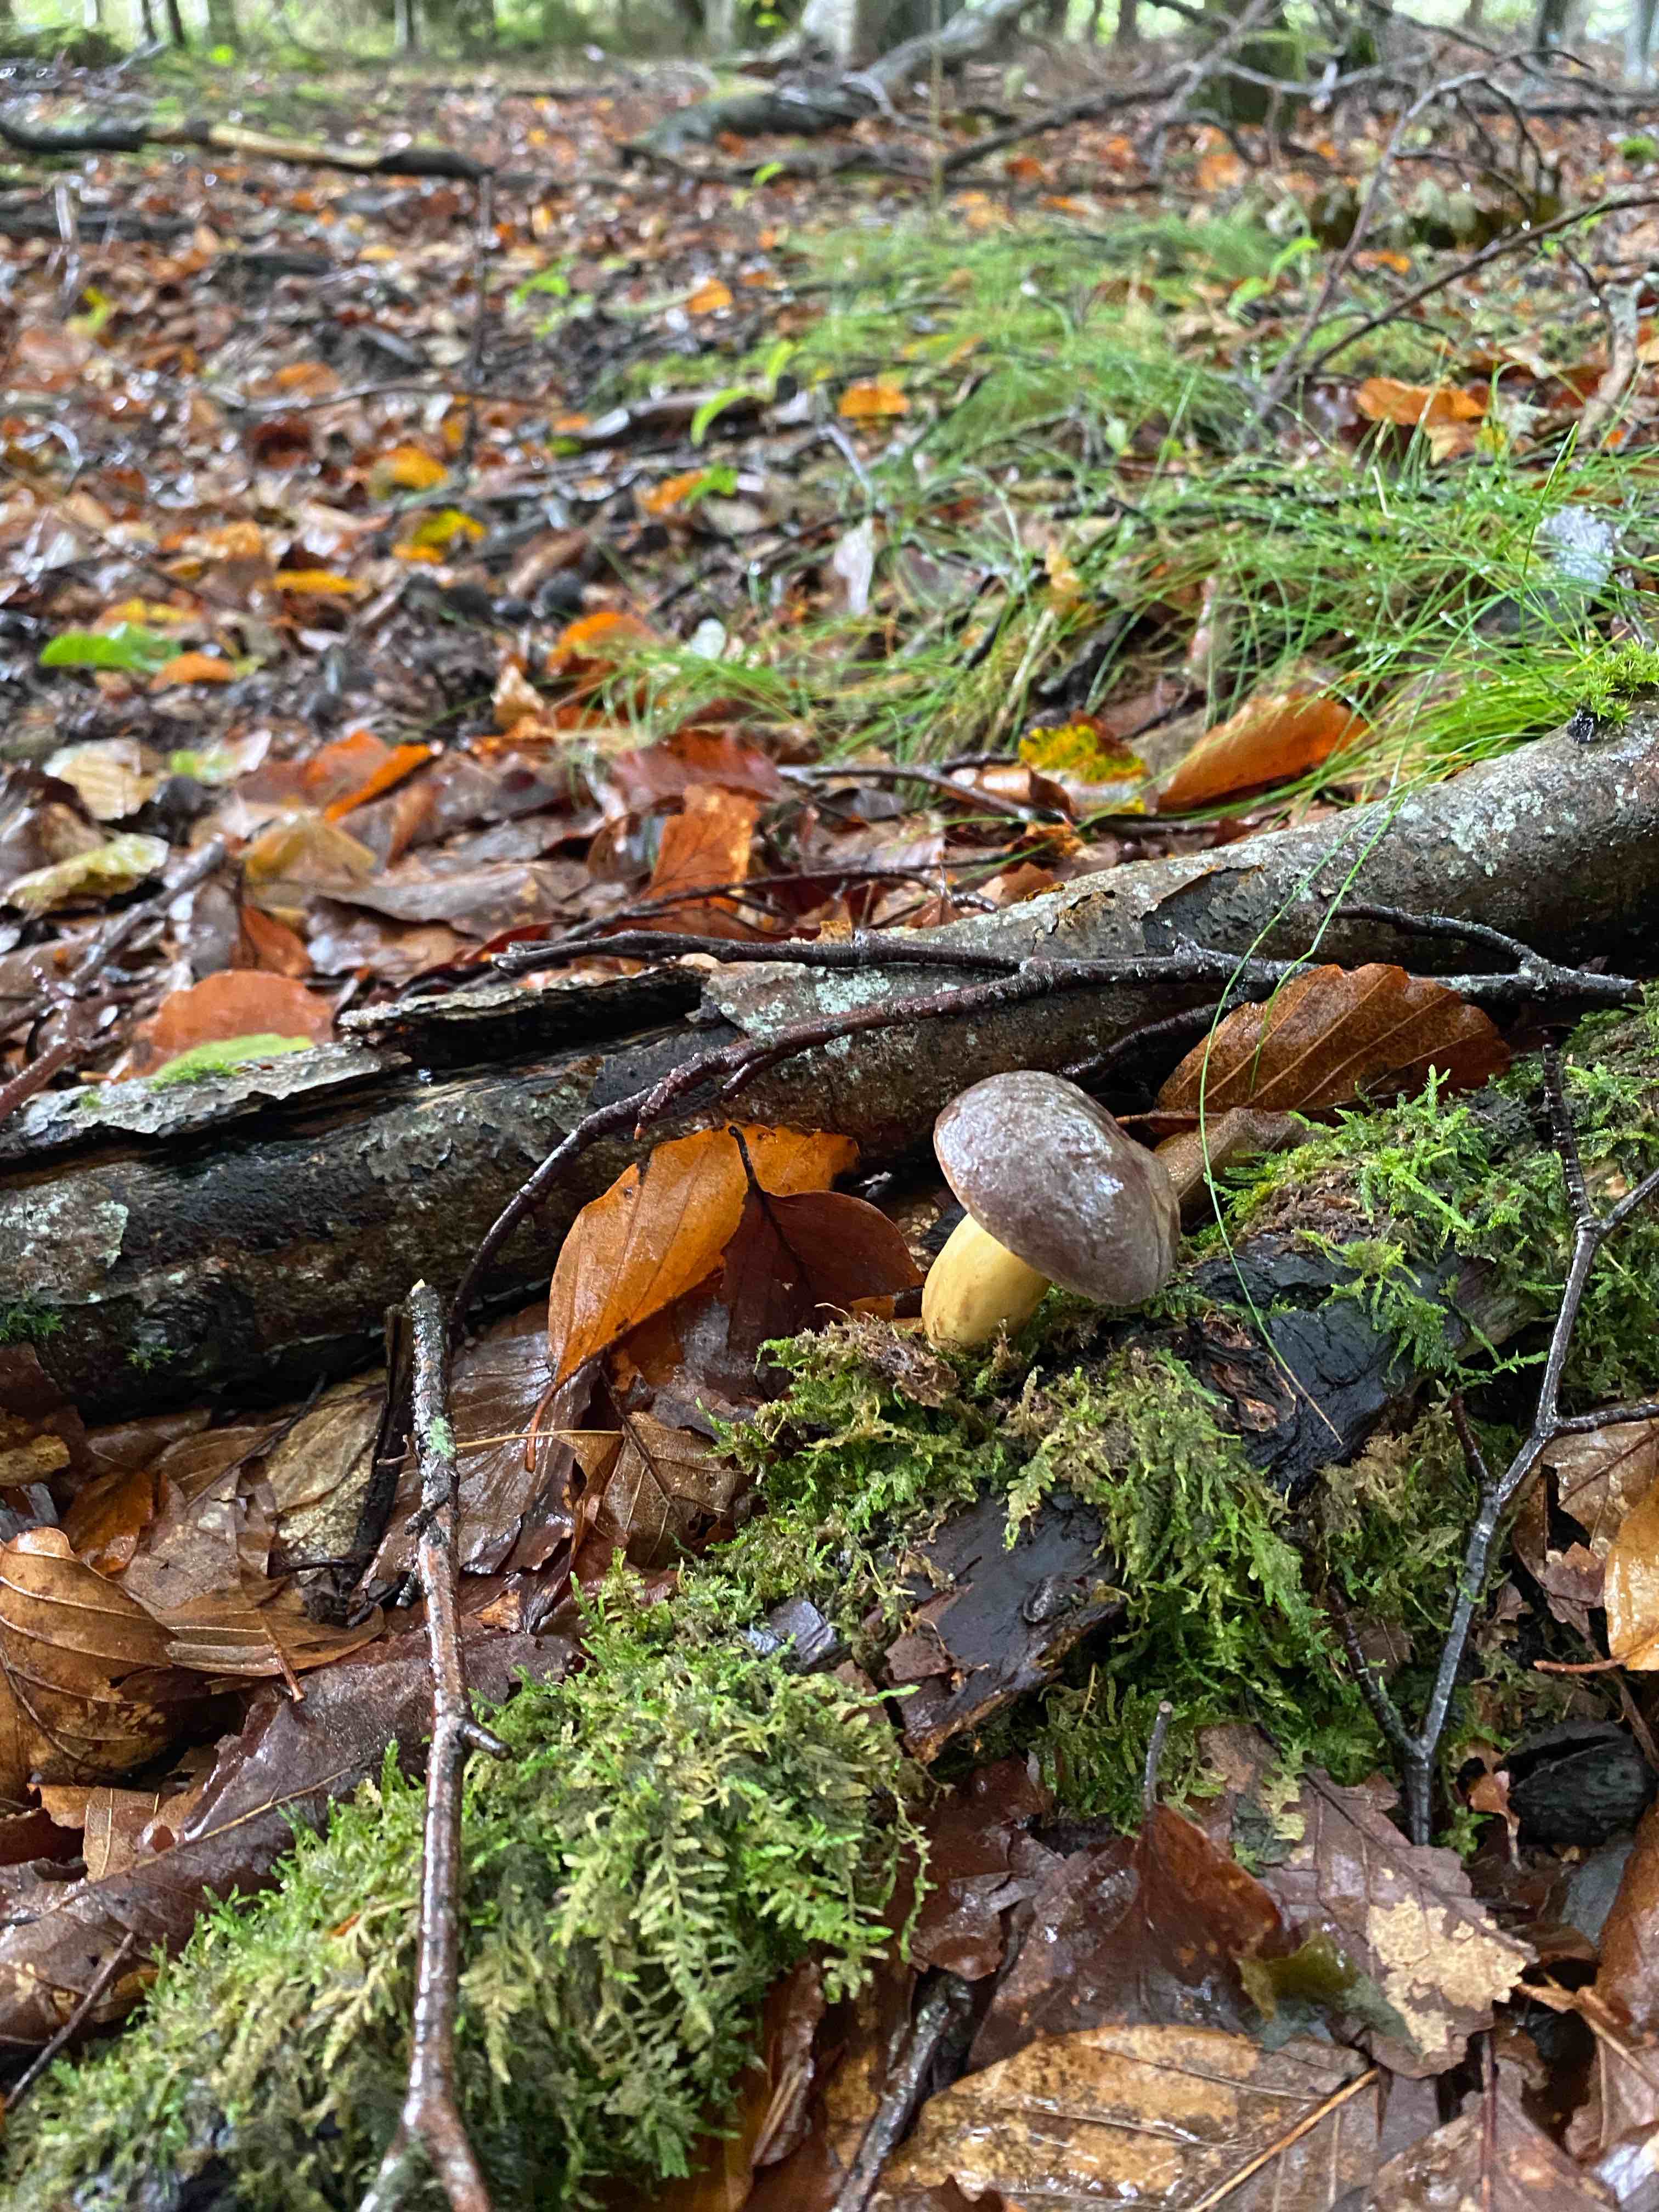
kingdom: Fungi
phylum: Basidiomycota
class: Agaricomycetes
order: Boletales
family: Boletaceae
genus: Xerocomellus
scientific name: Xerocomellus pruinatus
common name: dugget rørhat
